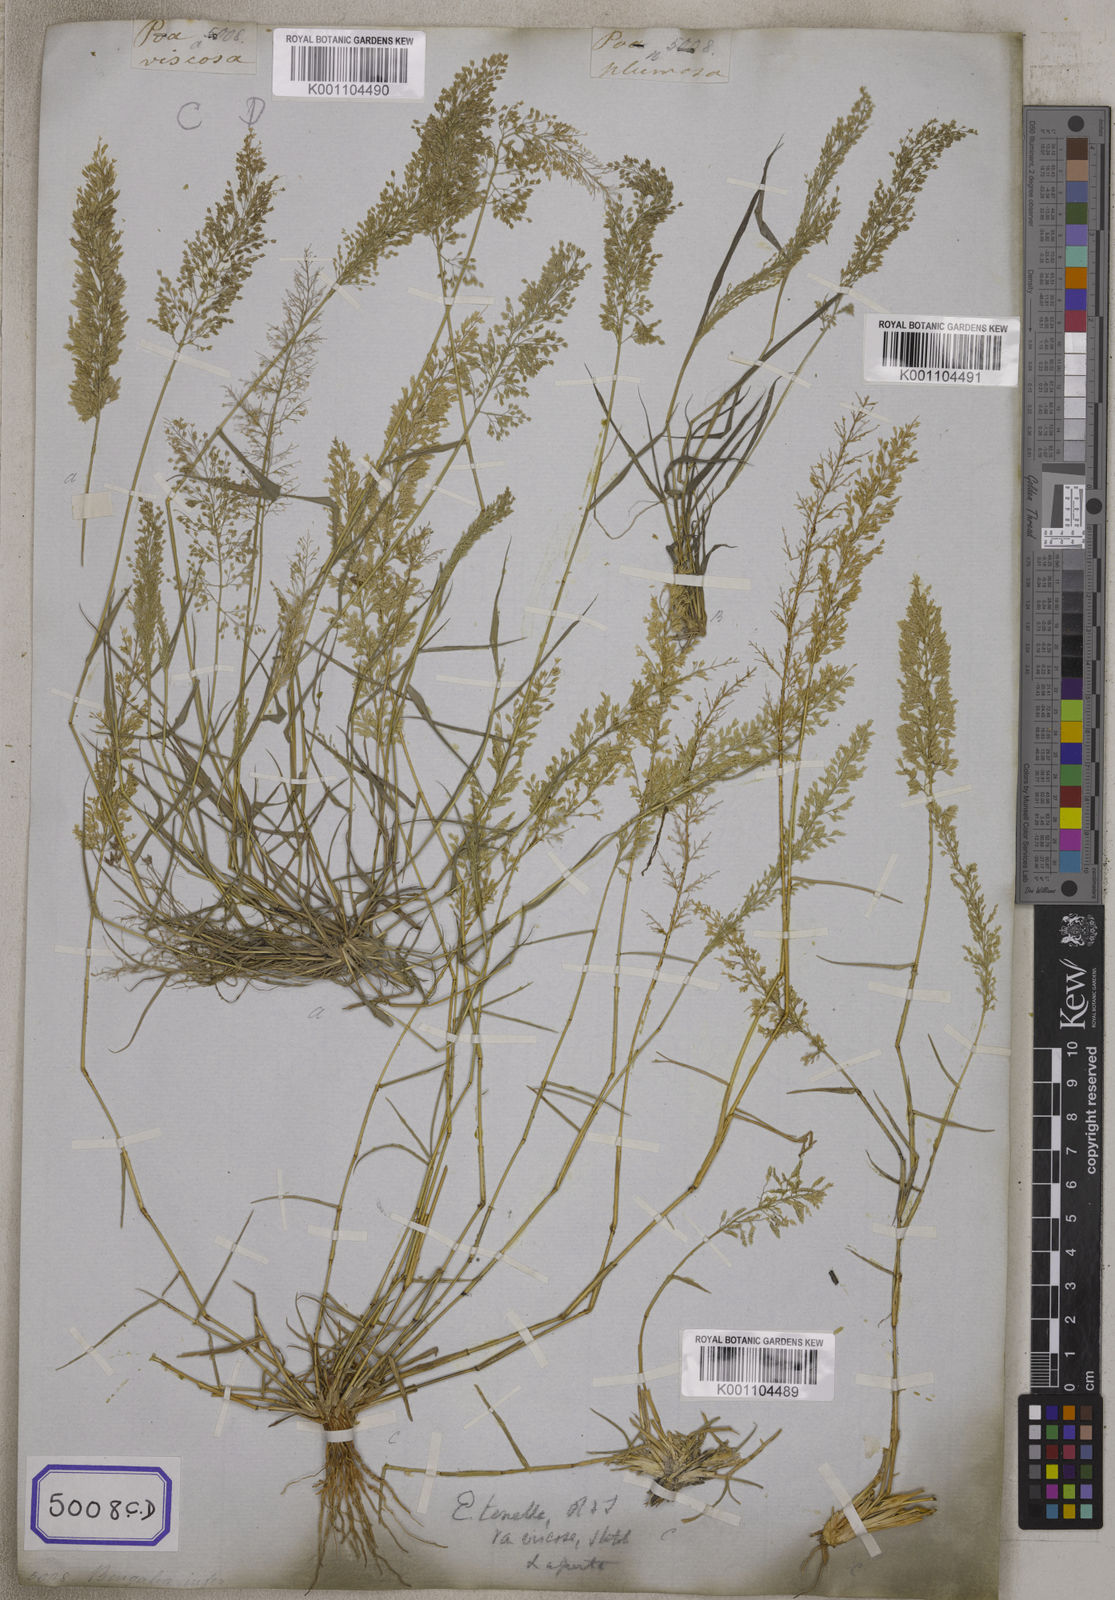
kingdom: Plantae
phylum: Tracheophyta
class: Liliopsida
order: Poales
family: Poaceae
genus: Eragrostis
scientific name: Eragrostis
